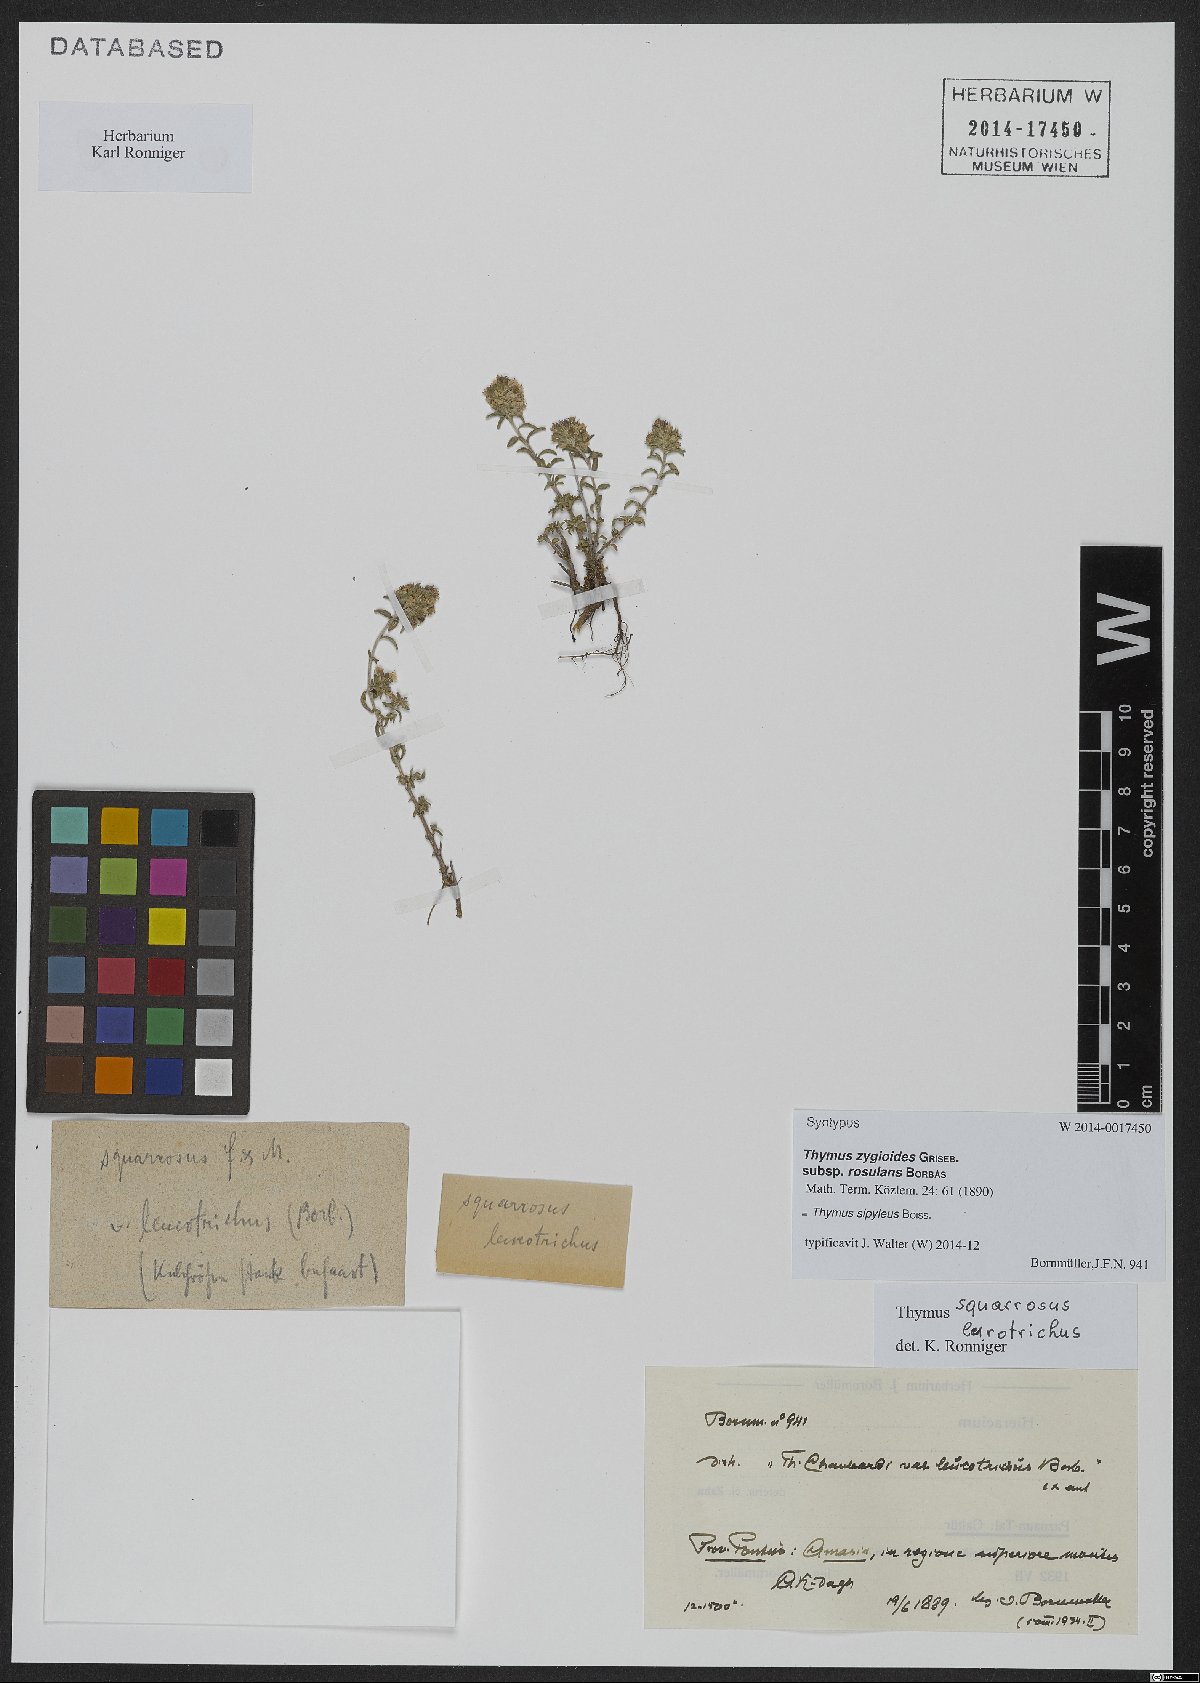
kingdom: Plantae
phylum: Tracheophyta
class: Magnoliopsida
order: Lamiales
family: Lamiaceae
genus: Thymus
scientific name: Thymus sipyleus
